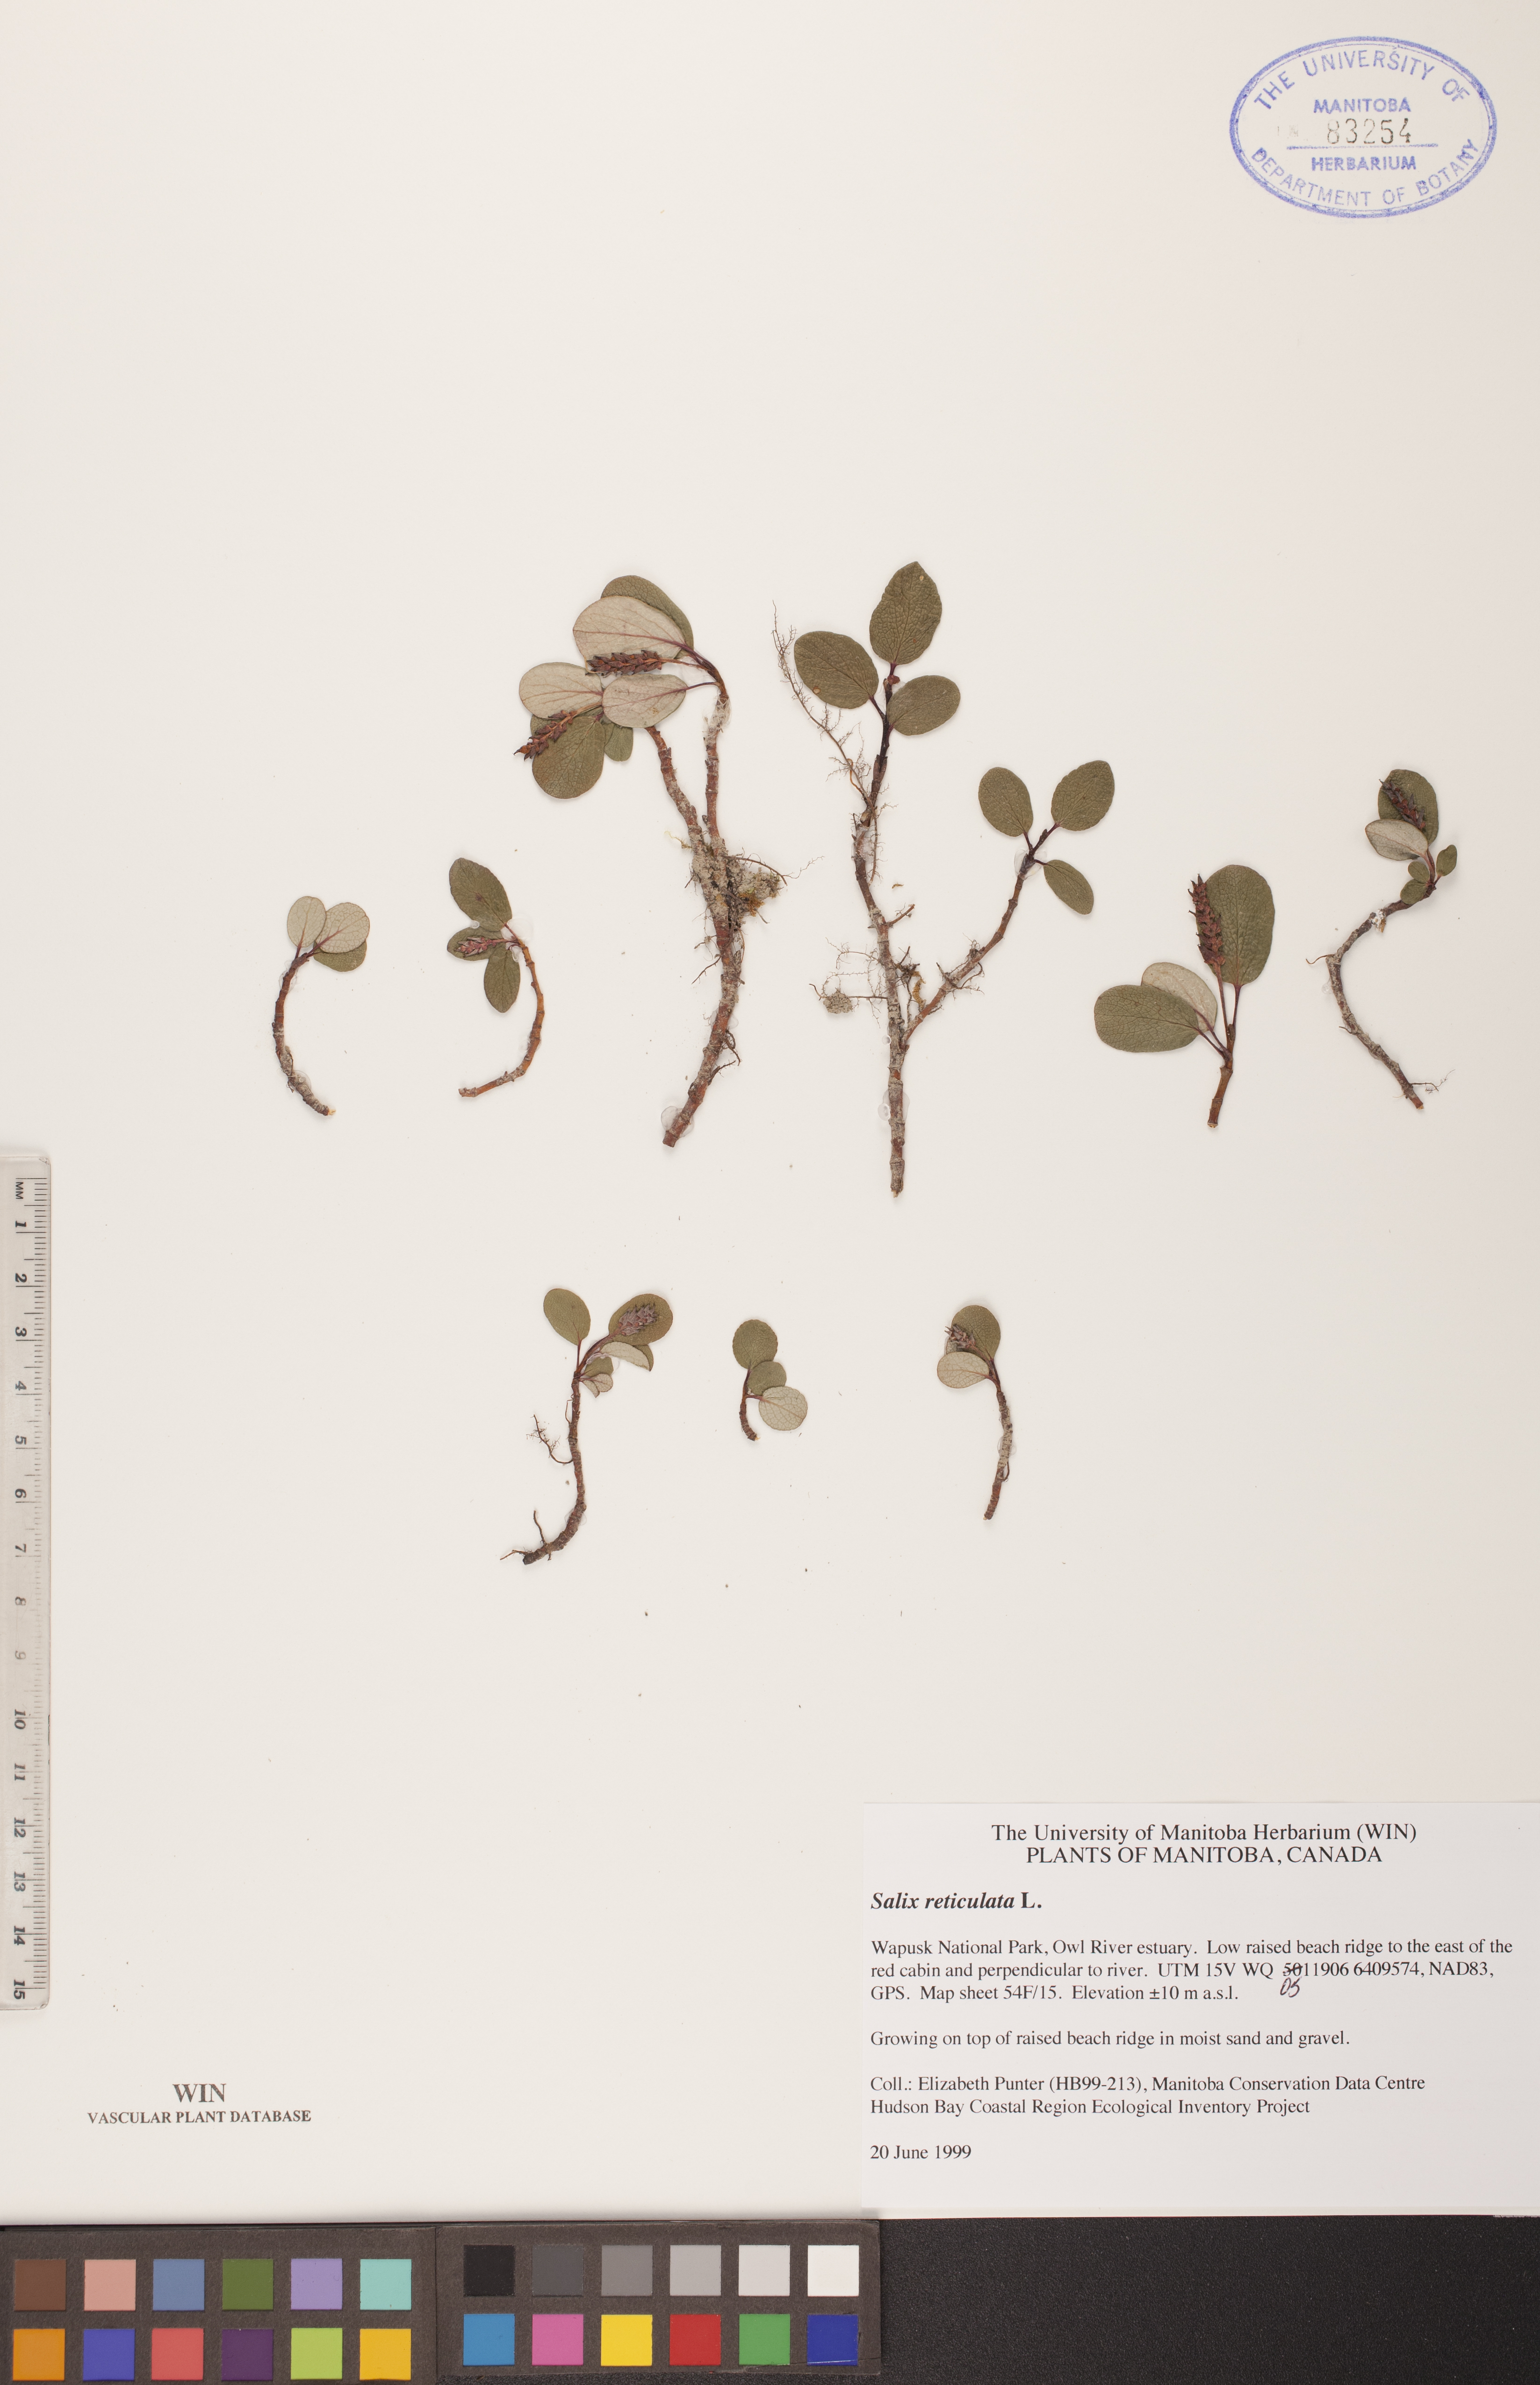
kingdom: Plantae
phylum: Tracheophyta
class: Magnoliopsida
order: Malpighiales
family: Salicaceae
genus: Salix
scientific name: Salix reticulata
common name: Net-leaved willow
